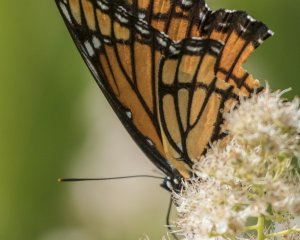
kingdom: Animalia
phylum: Arthropoda
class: Insecta
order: Lepidoptera
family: Nymphalidae
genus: Limenitis
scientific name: Limenitis archippus
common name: Viceroy
